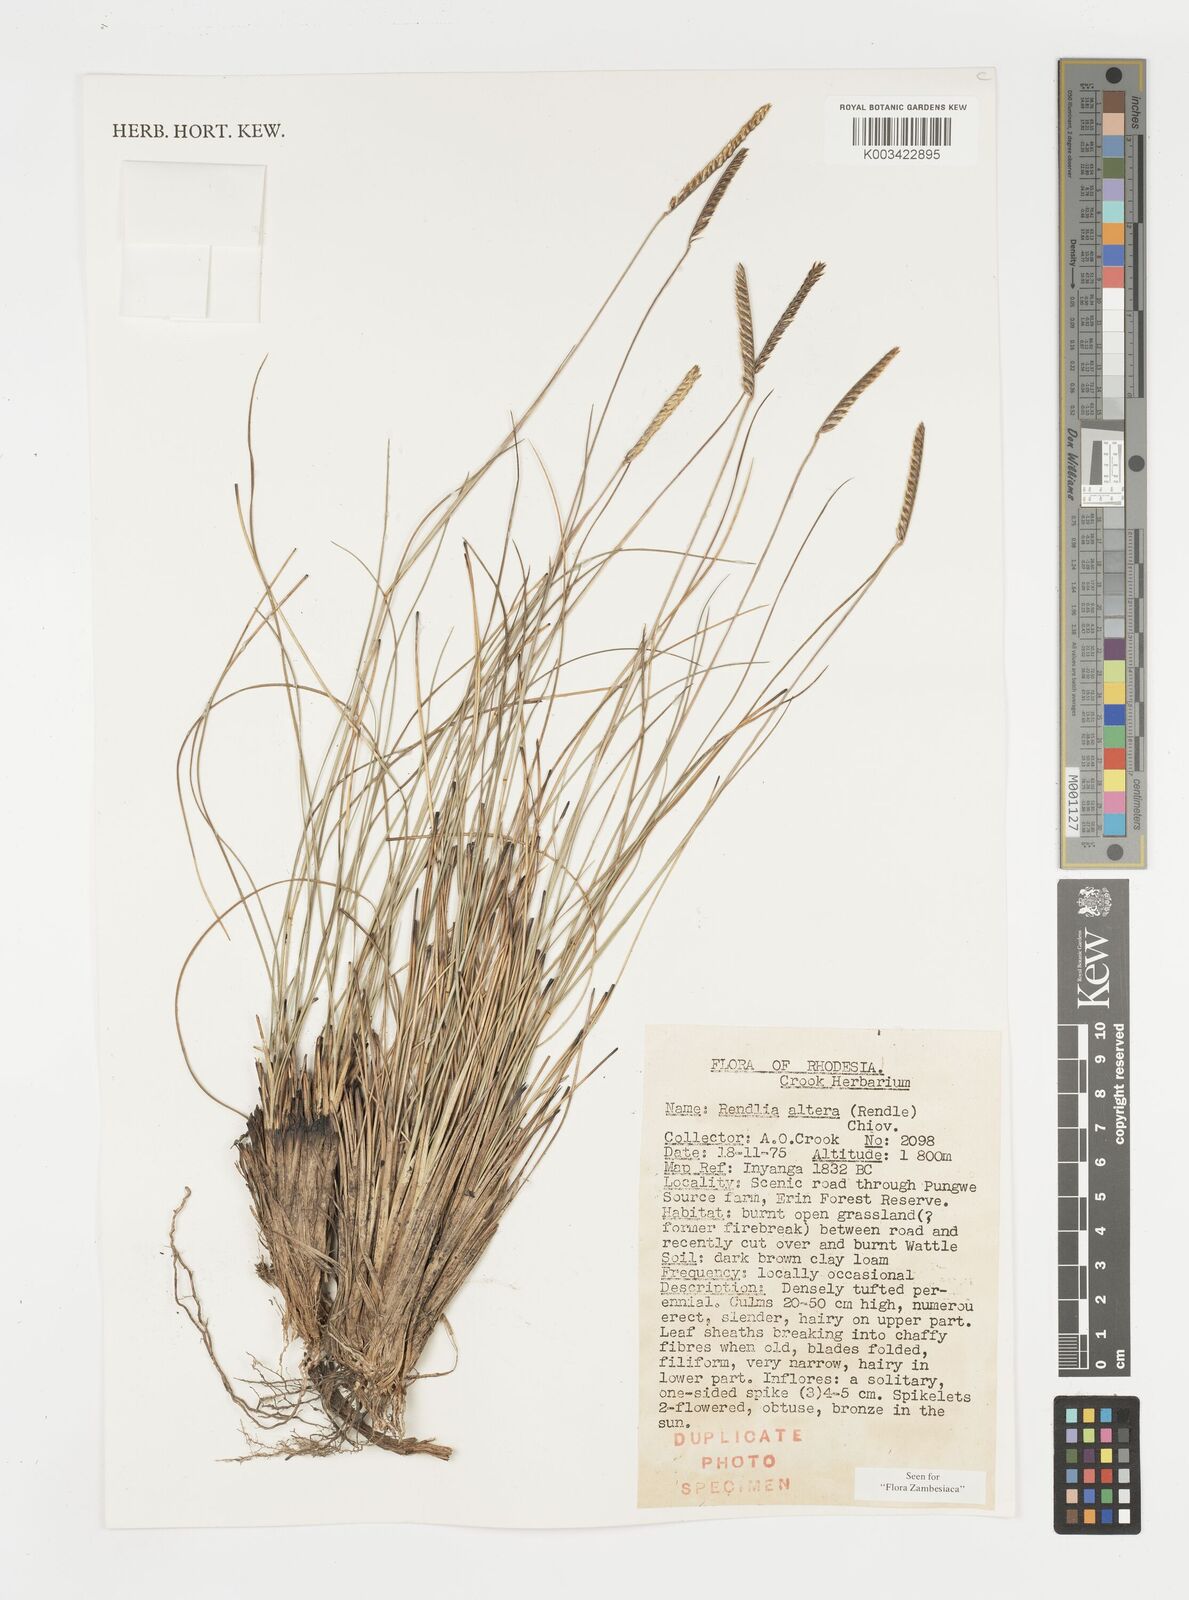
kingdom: Plantae
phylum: Tracheophyta
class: Liliopsida
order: Poales
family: Poaceae
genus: Microchloa
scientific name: Microchloa altera
